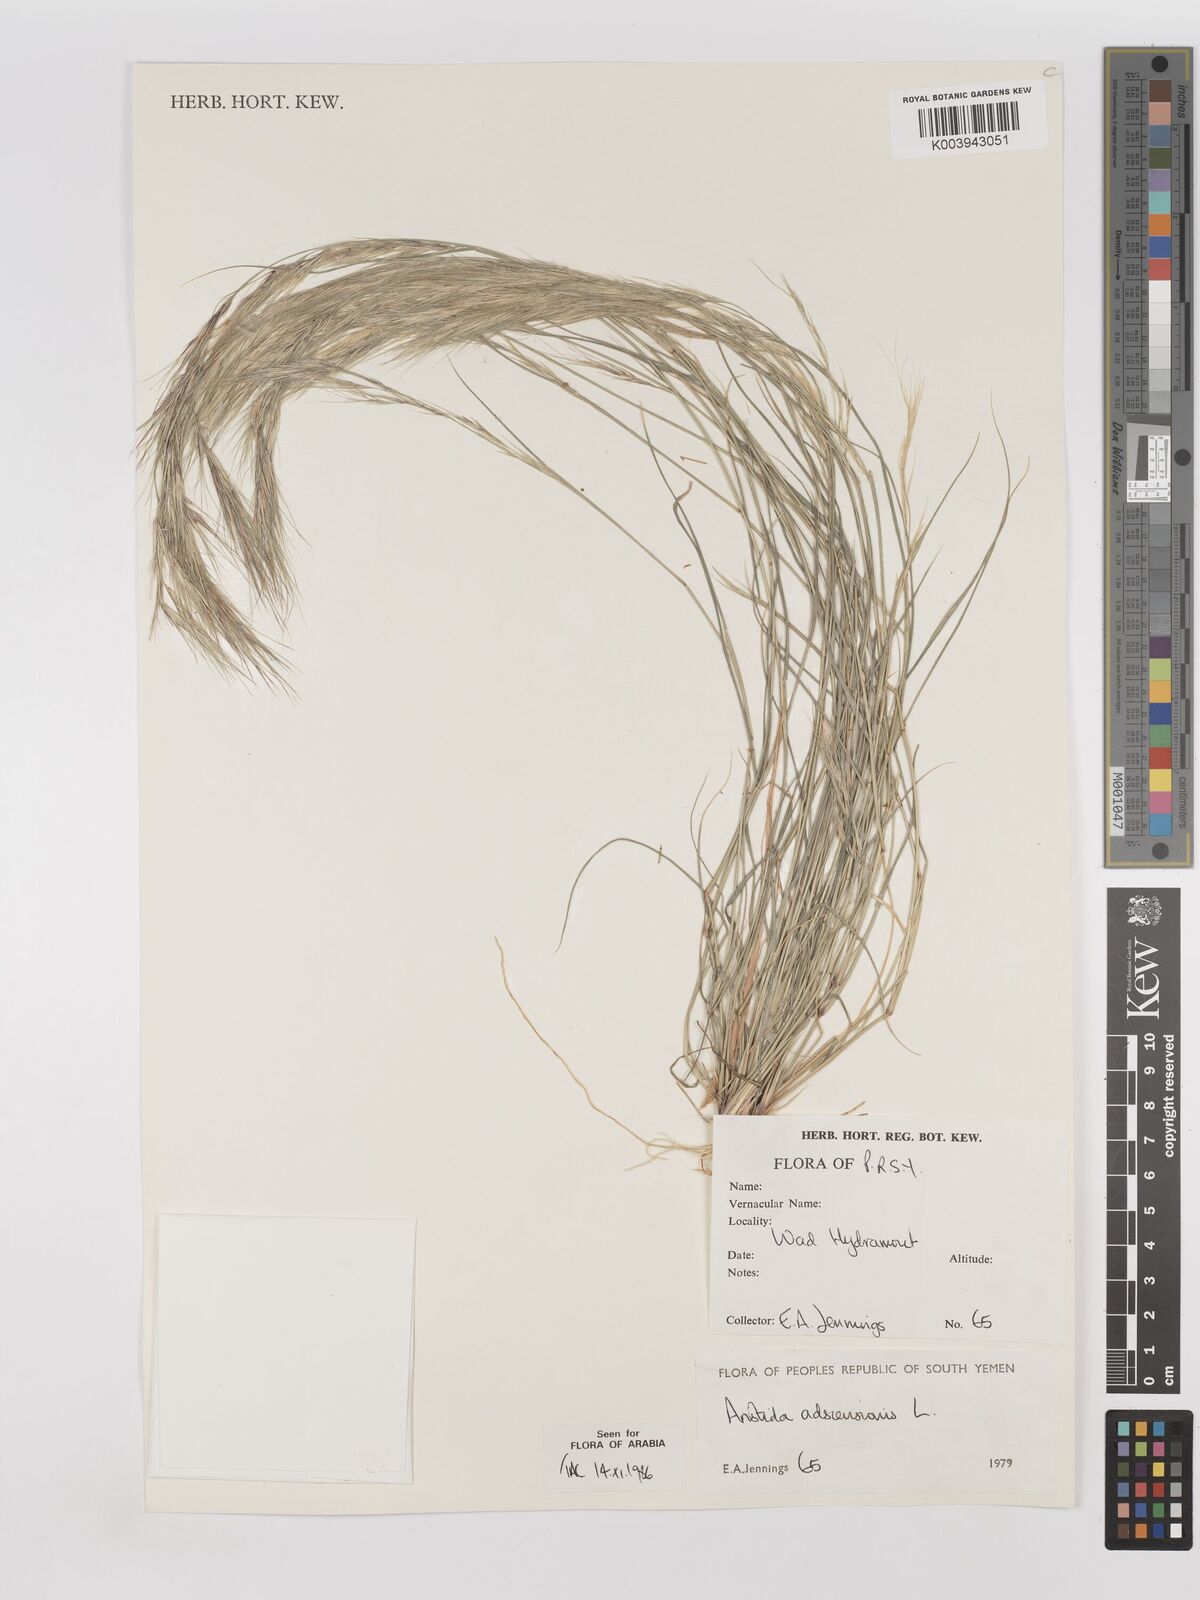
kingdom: Plantae
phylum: Tracheophyta
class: Liliopsida
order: Poales
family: Poaceae
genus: Aristida
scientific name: Aristida adscensionis
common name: Sixweeks threeawn
